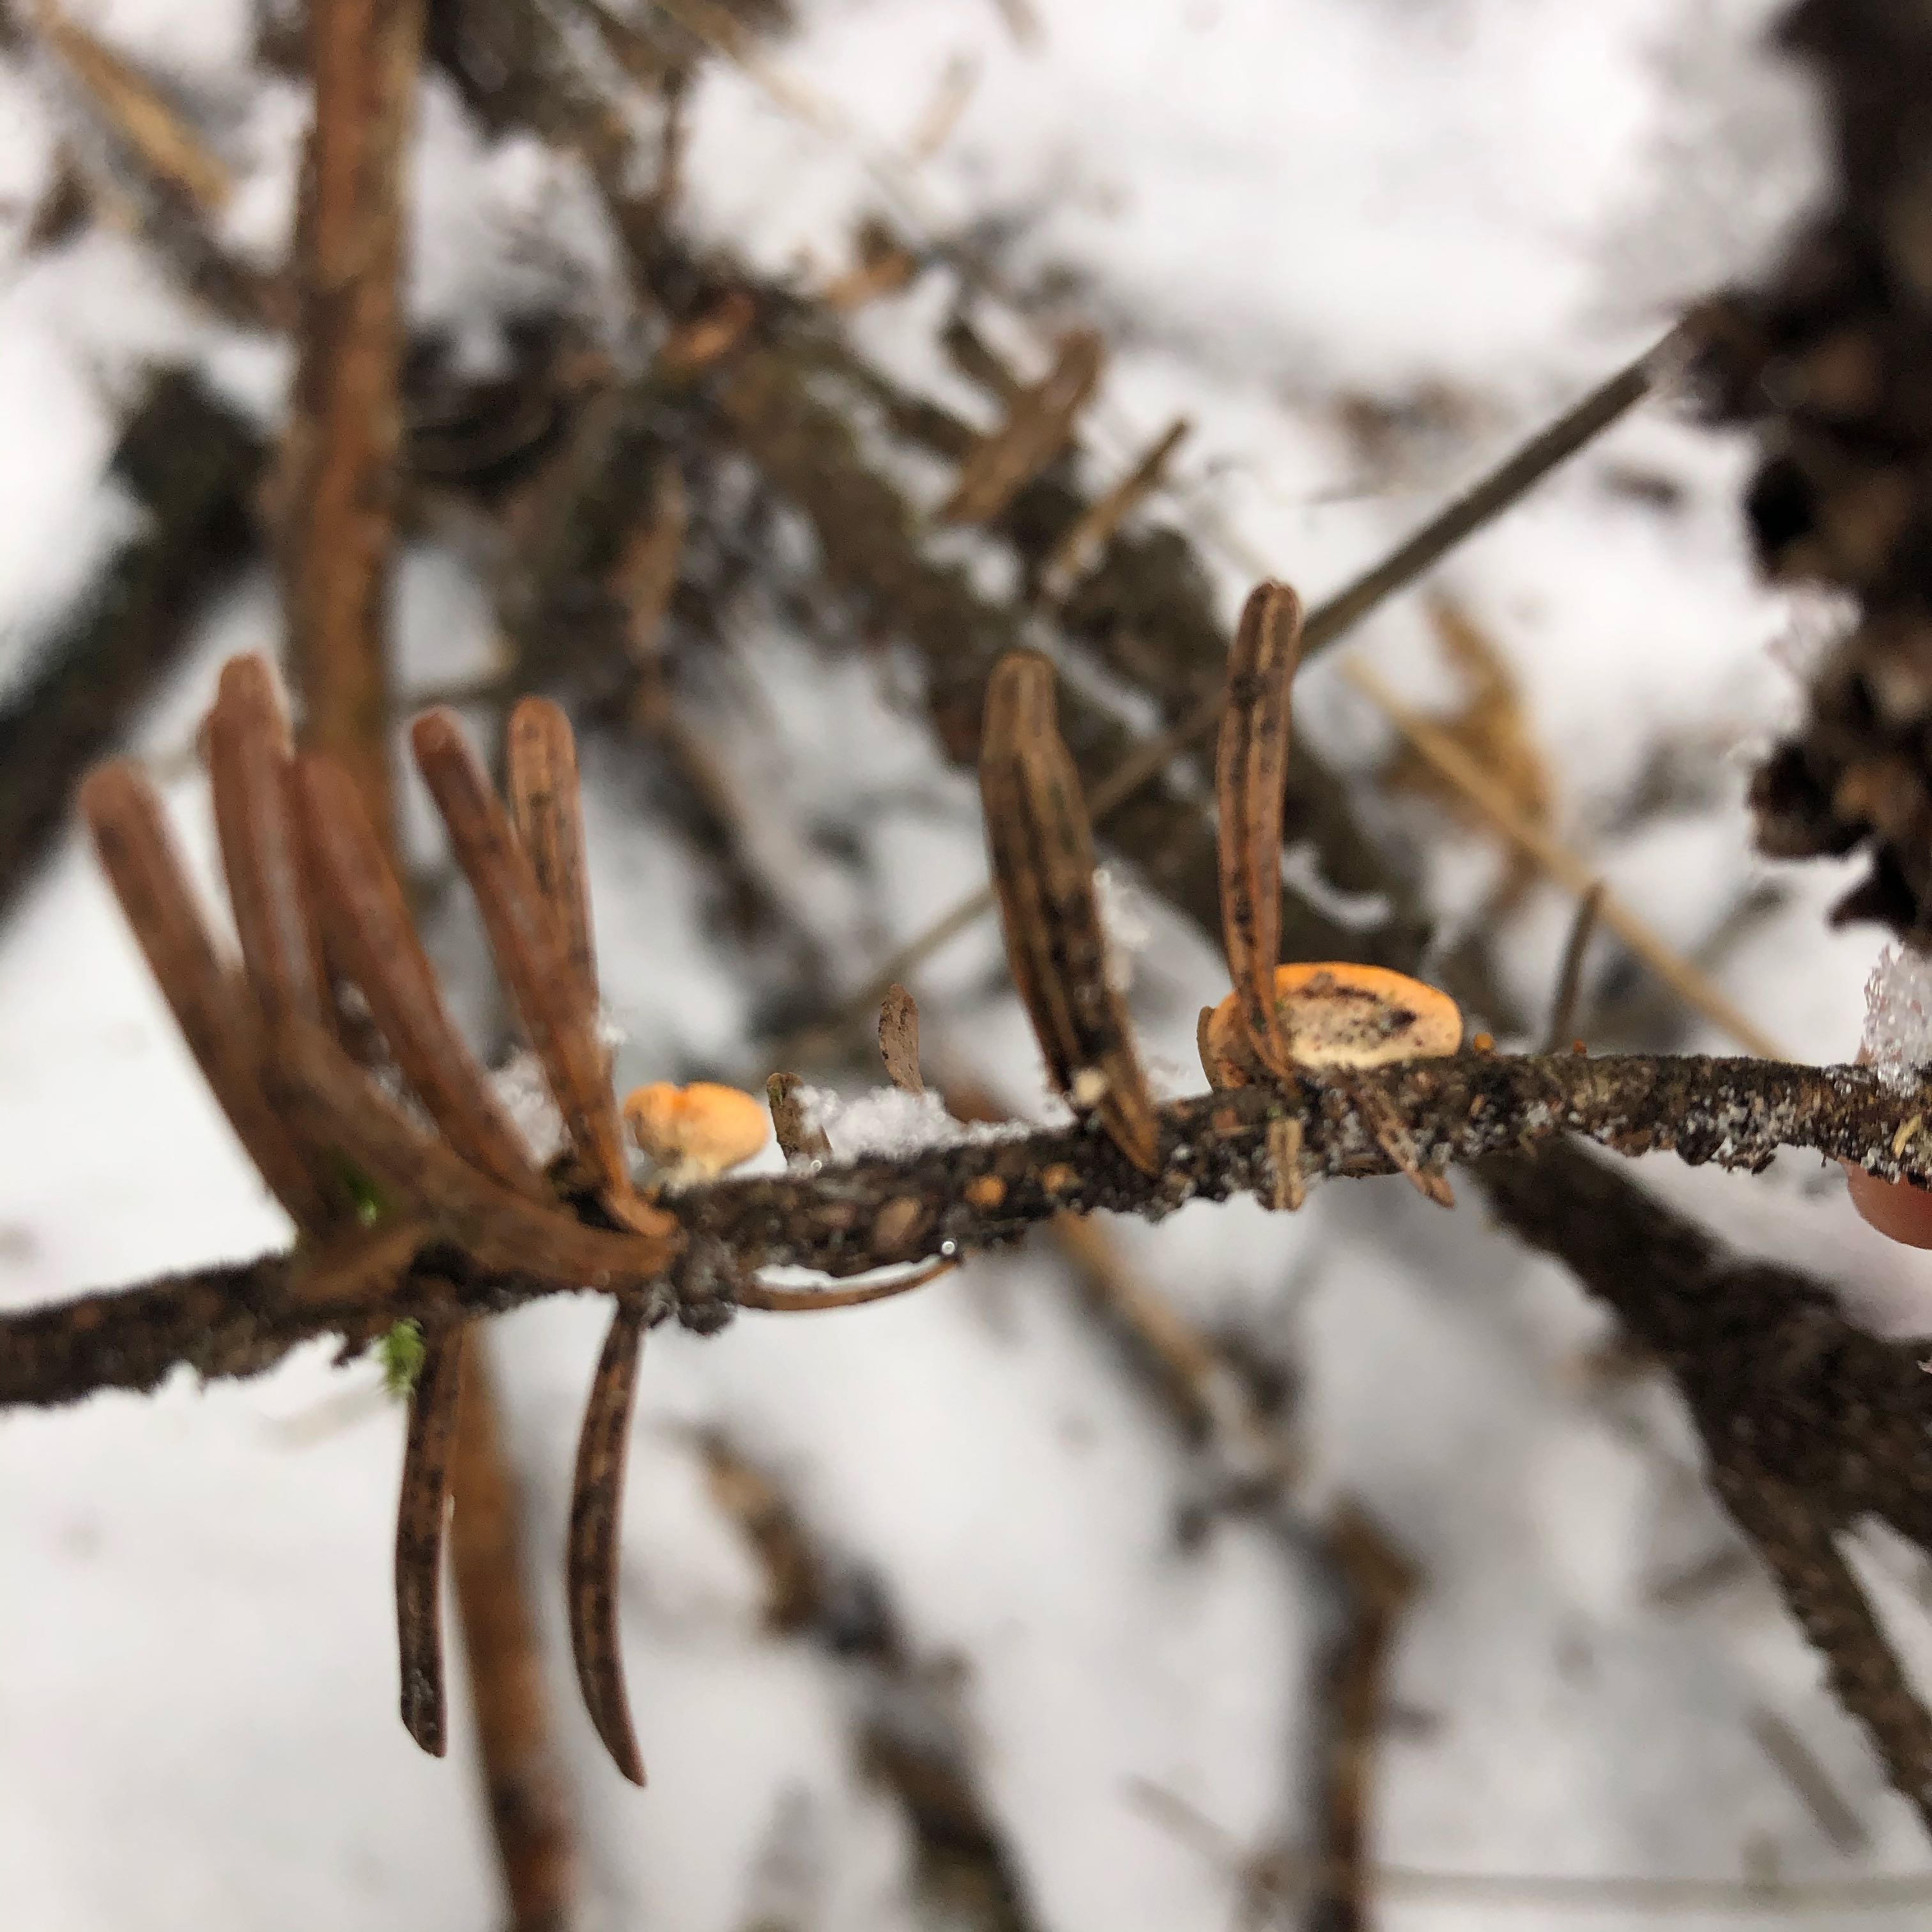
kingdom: Fungi
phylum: Ascomycota
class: Pezizomycetes
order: Pezizales
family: Sarcoscyphaceae
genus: Pithya
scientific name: Pithya vulgaris
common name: stor dukatbæger
